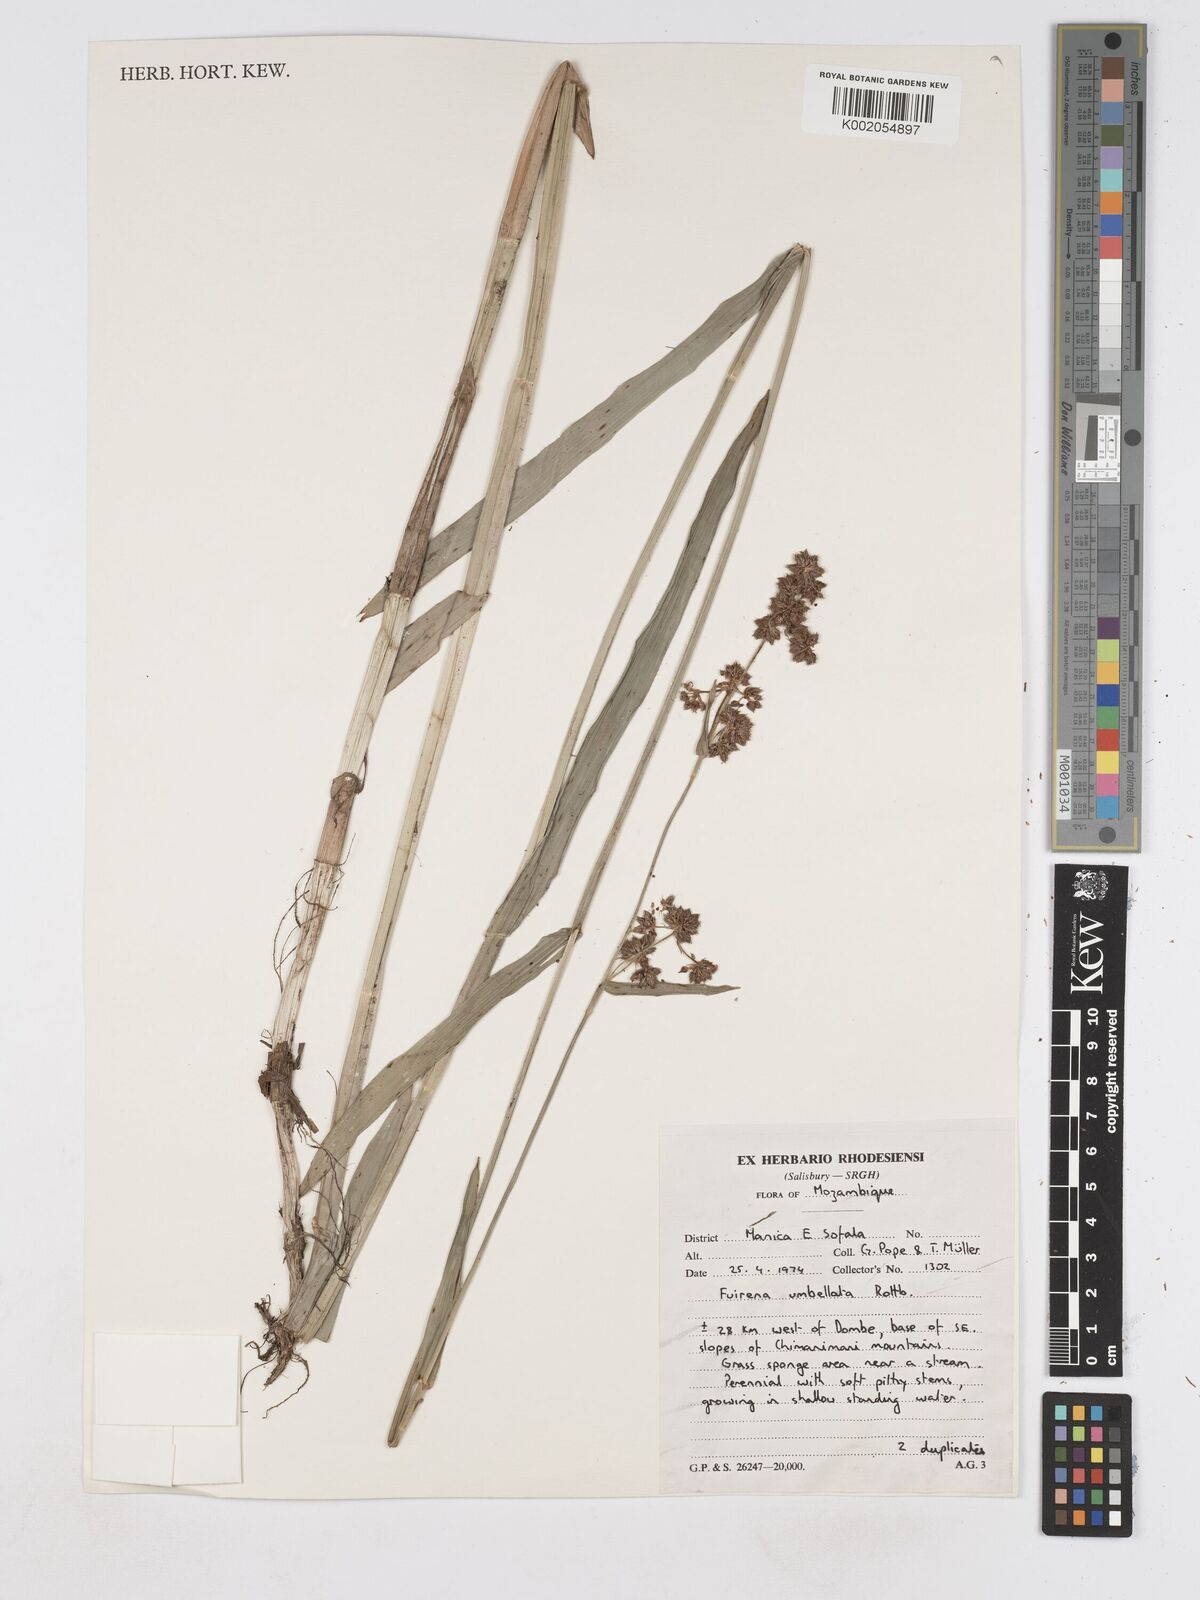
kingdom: Plantae
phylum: Tracheophyta
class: Liliopsida
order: Poales
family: Cyperaceae
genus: Fuirena
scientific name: Fuirena umbellata
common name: Yefen
